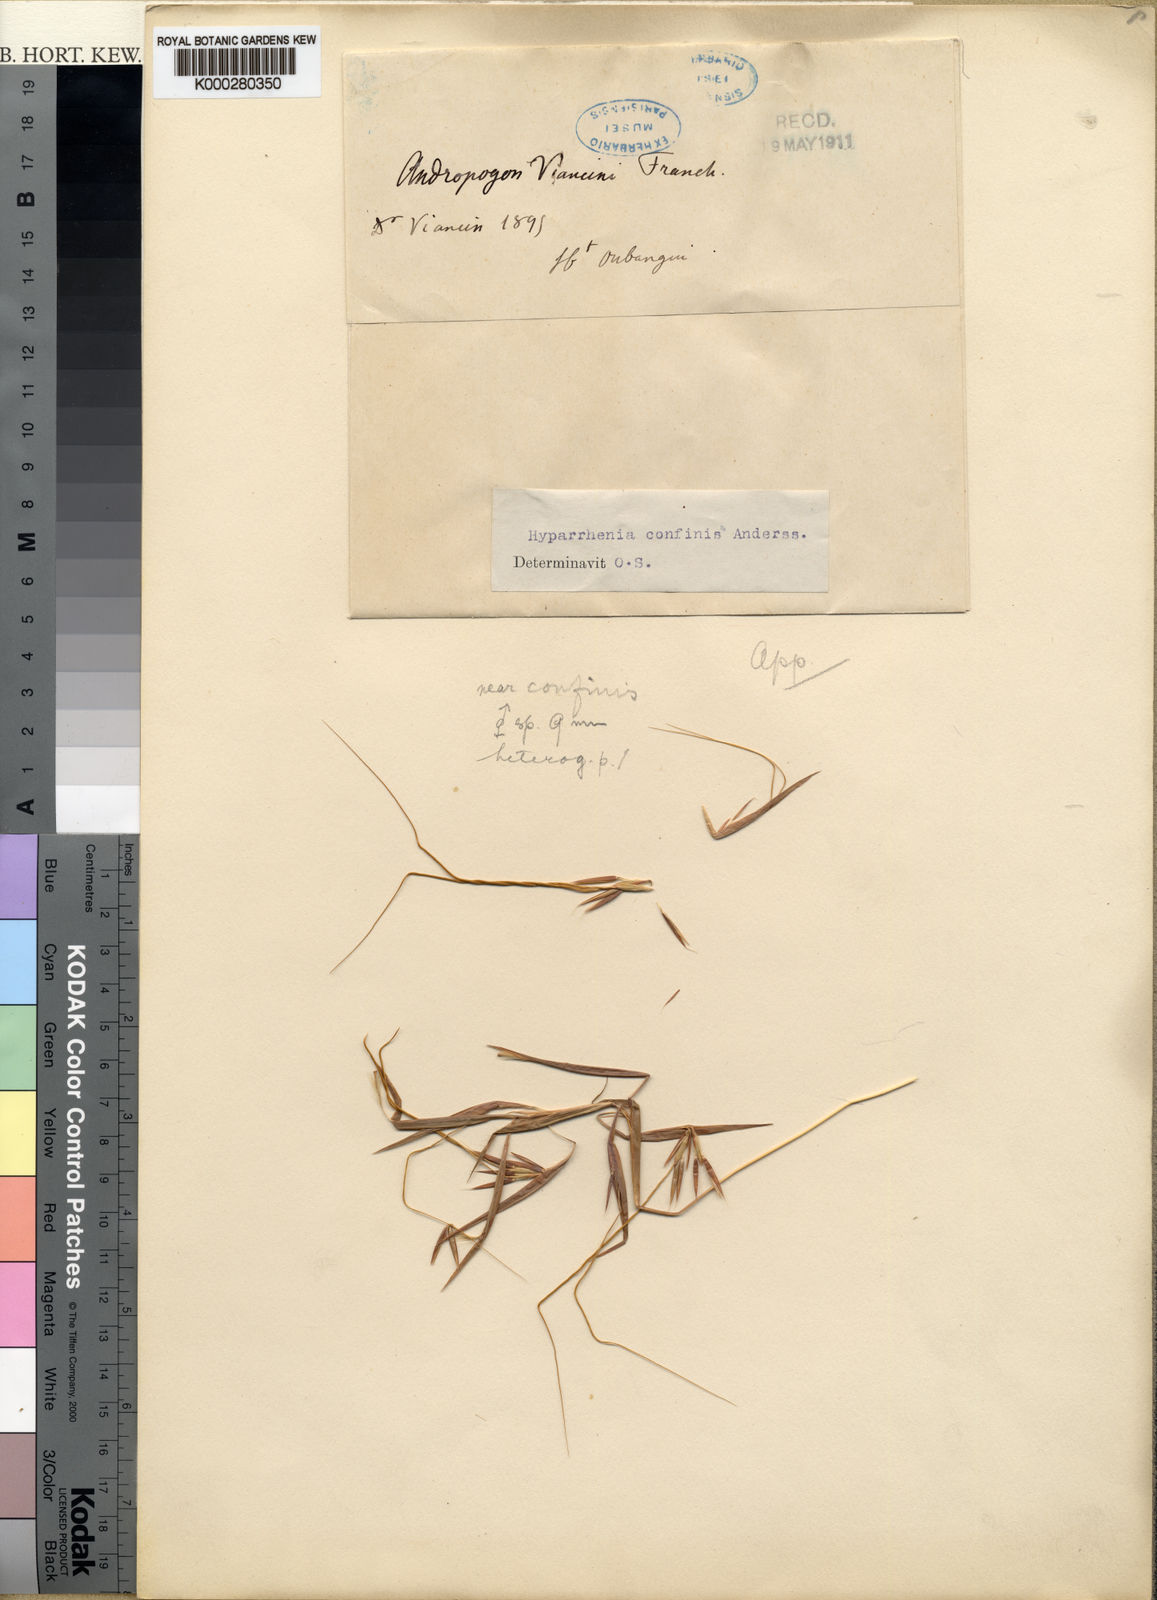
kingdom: Plantae
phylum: Tracheophyta
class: Liliopsida
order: Poales
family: Poaceae
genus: Hyparrhenia
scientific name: Hyparrhenia niariensis
